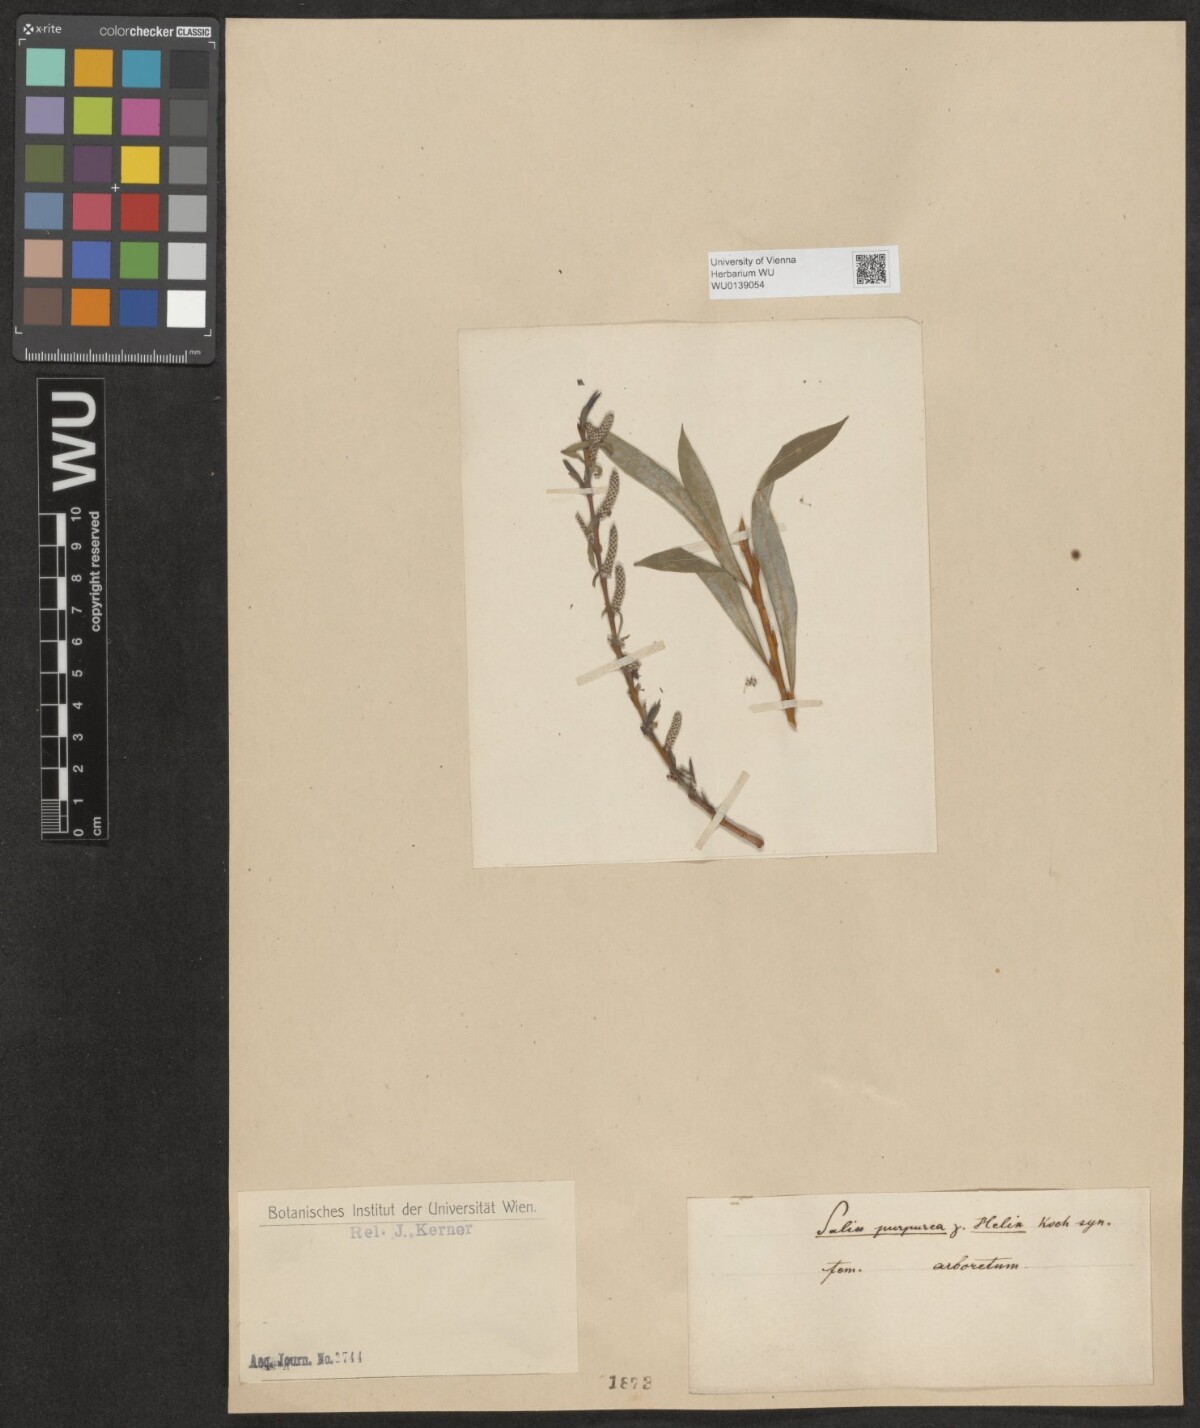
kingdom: Plantae
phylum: Tracheophyta
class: Magnoliopsida
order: Malpighiales
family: Salicaceae
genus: Salix
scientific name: Salix purpurea
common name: Purple willow
